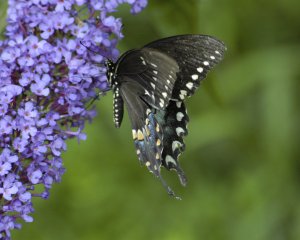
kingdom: Animalia
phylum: Arthropoda
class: Insecta
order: Lepidoptera
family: Papilionidae
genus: Pterourus
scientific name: Pterourus troilus
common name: Spicebush Swallowtail
